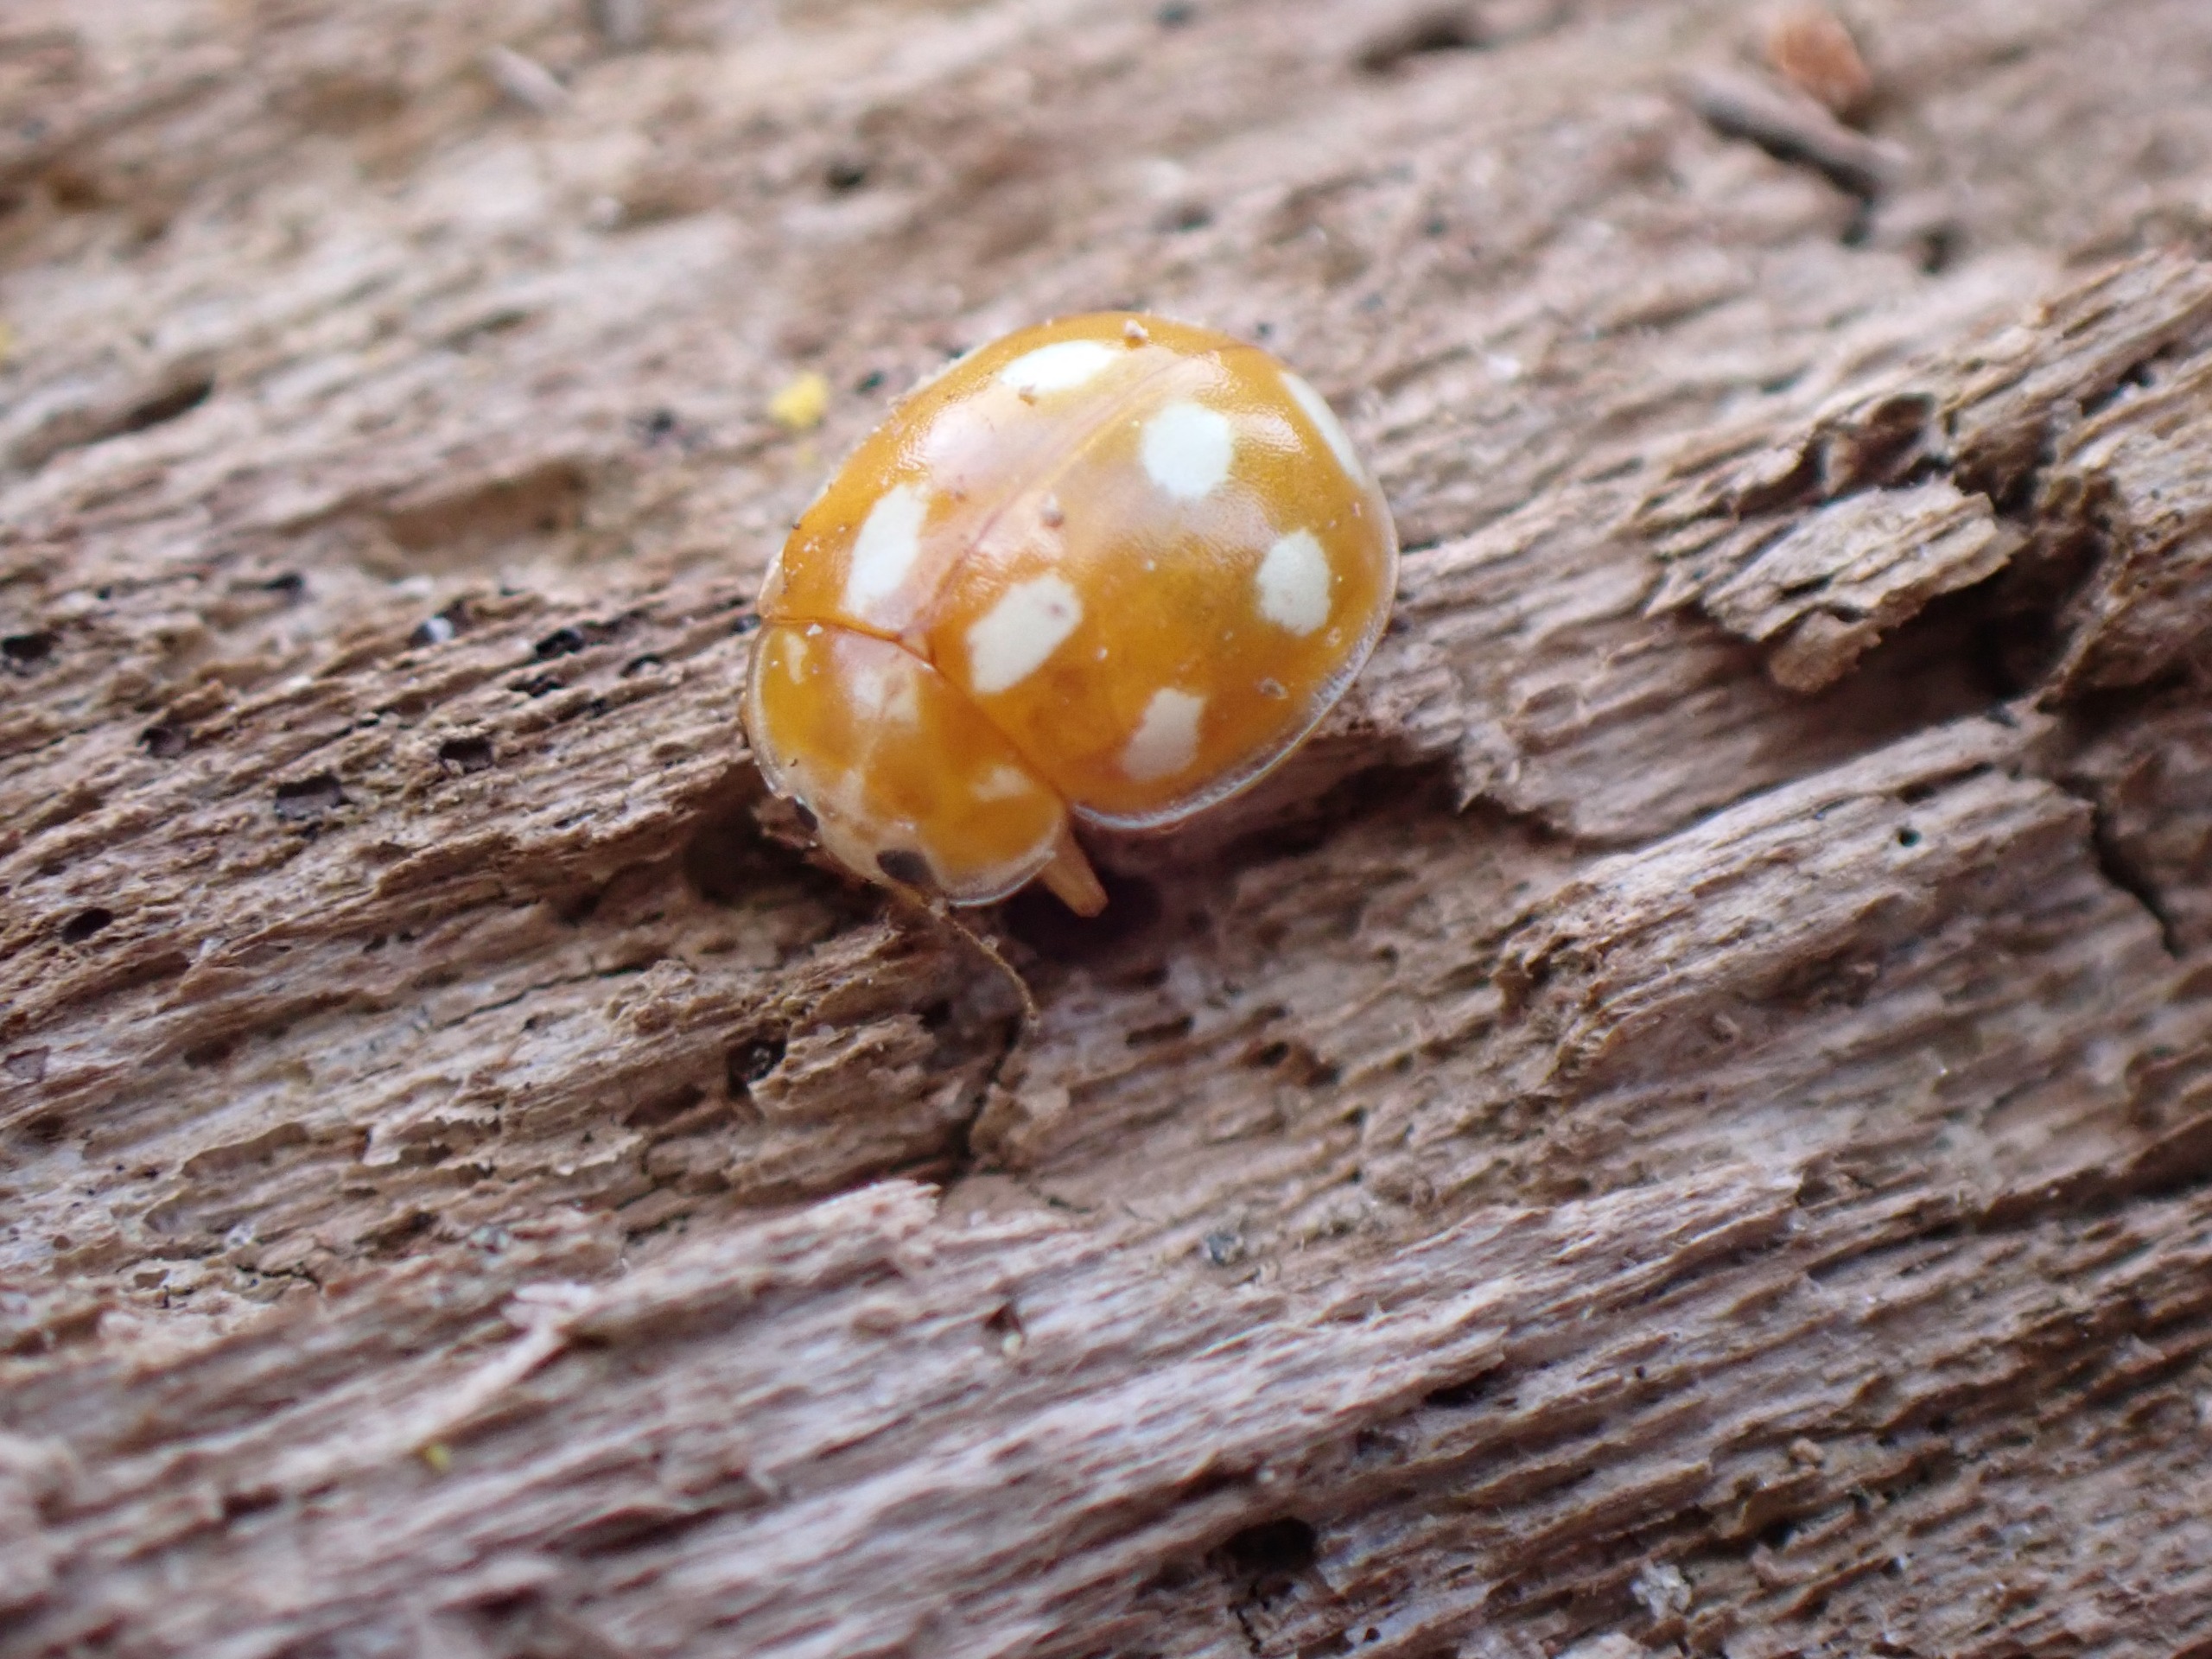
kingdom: Animalia
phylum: Arthropoda
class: Insecta
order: Coleoptera
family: Coccinellidae
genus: Calvia
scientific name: Calvia decemguttata
